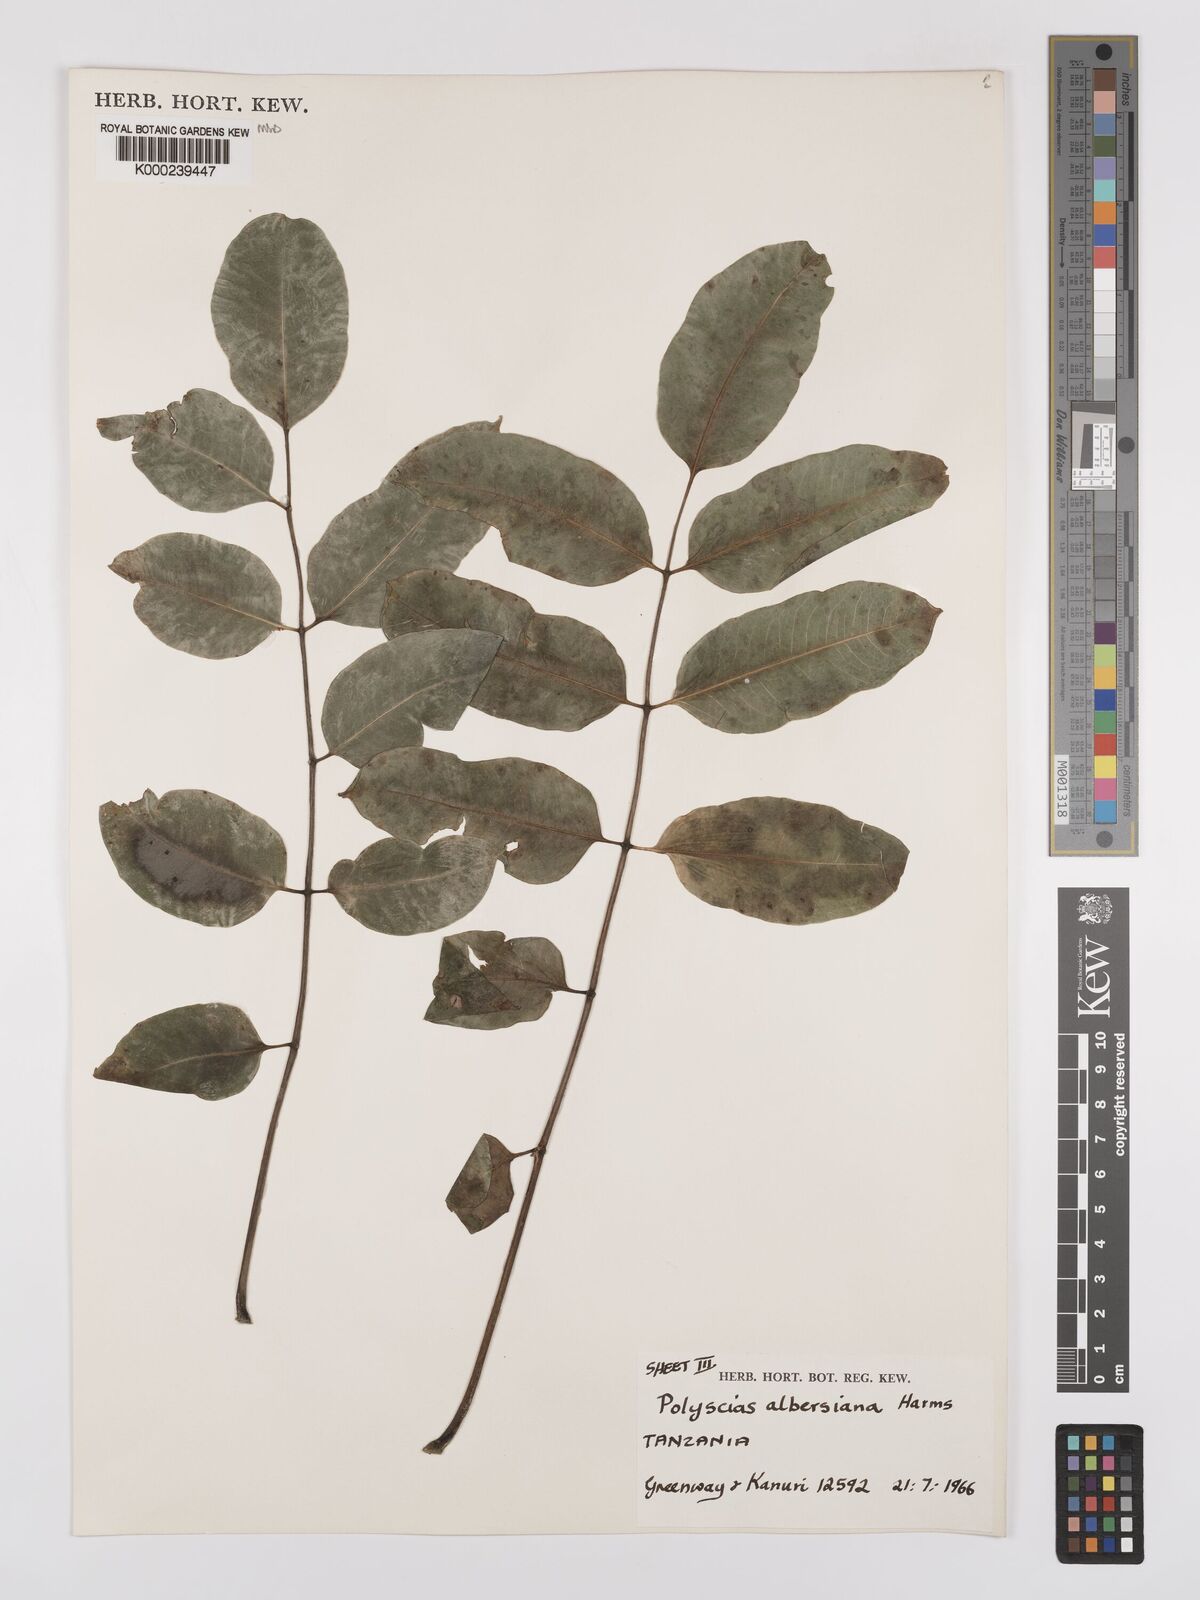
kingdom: Plantae
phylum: Tracheophyta
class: Magnoliopsida
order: Apiales
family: Araliaceae
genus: Polyscias
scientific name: Polyscias albersiana
